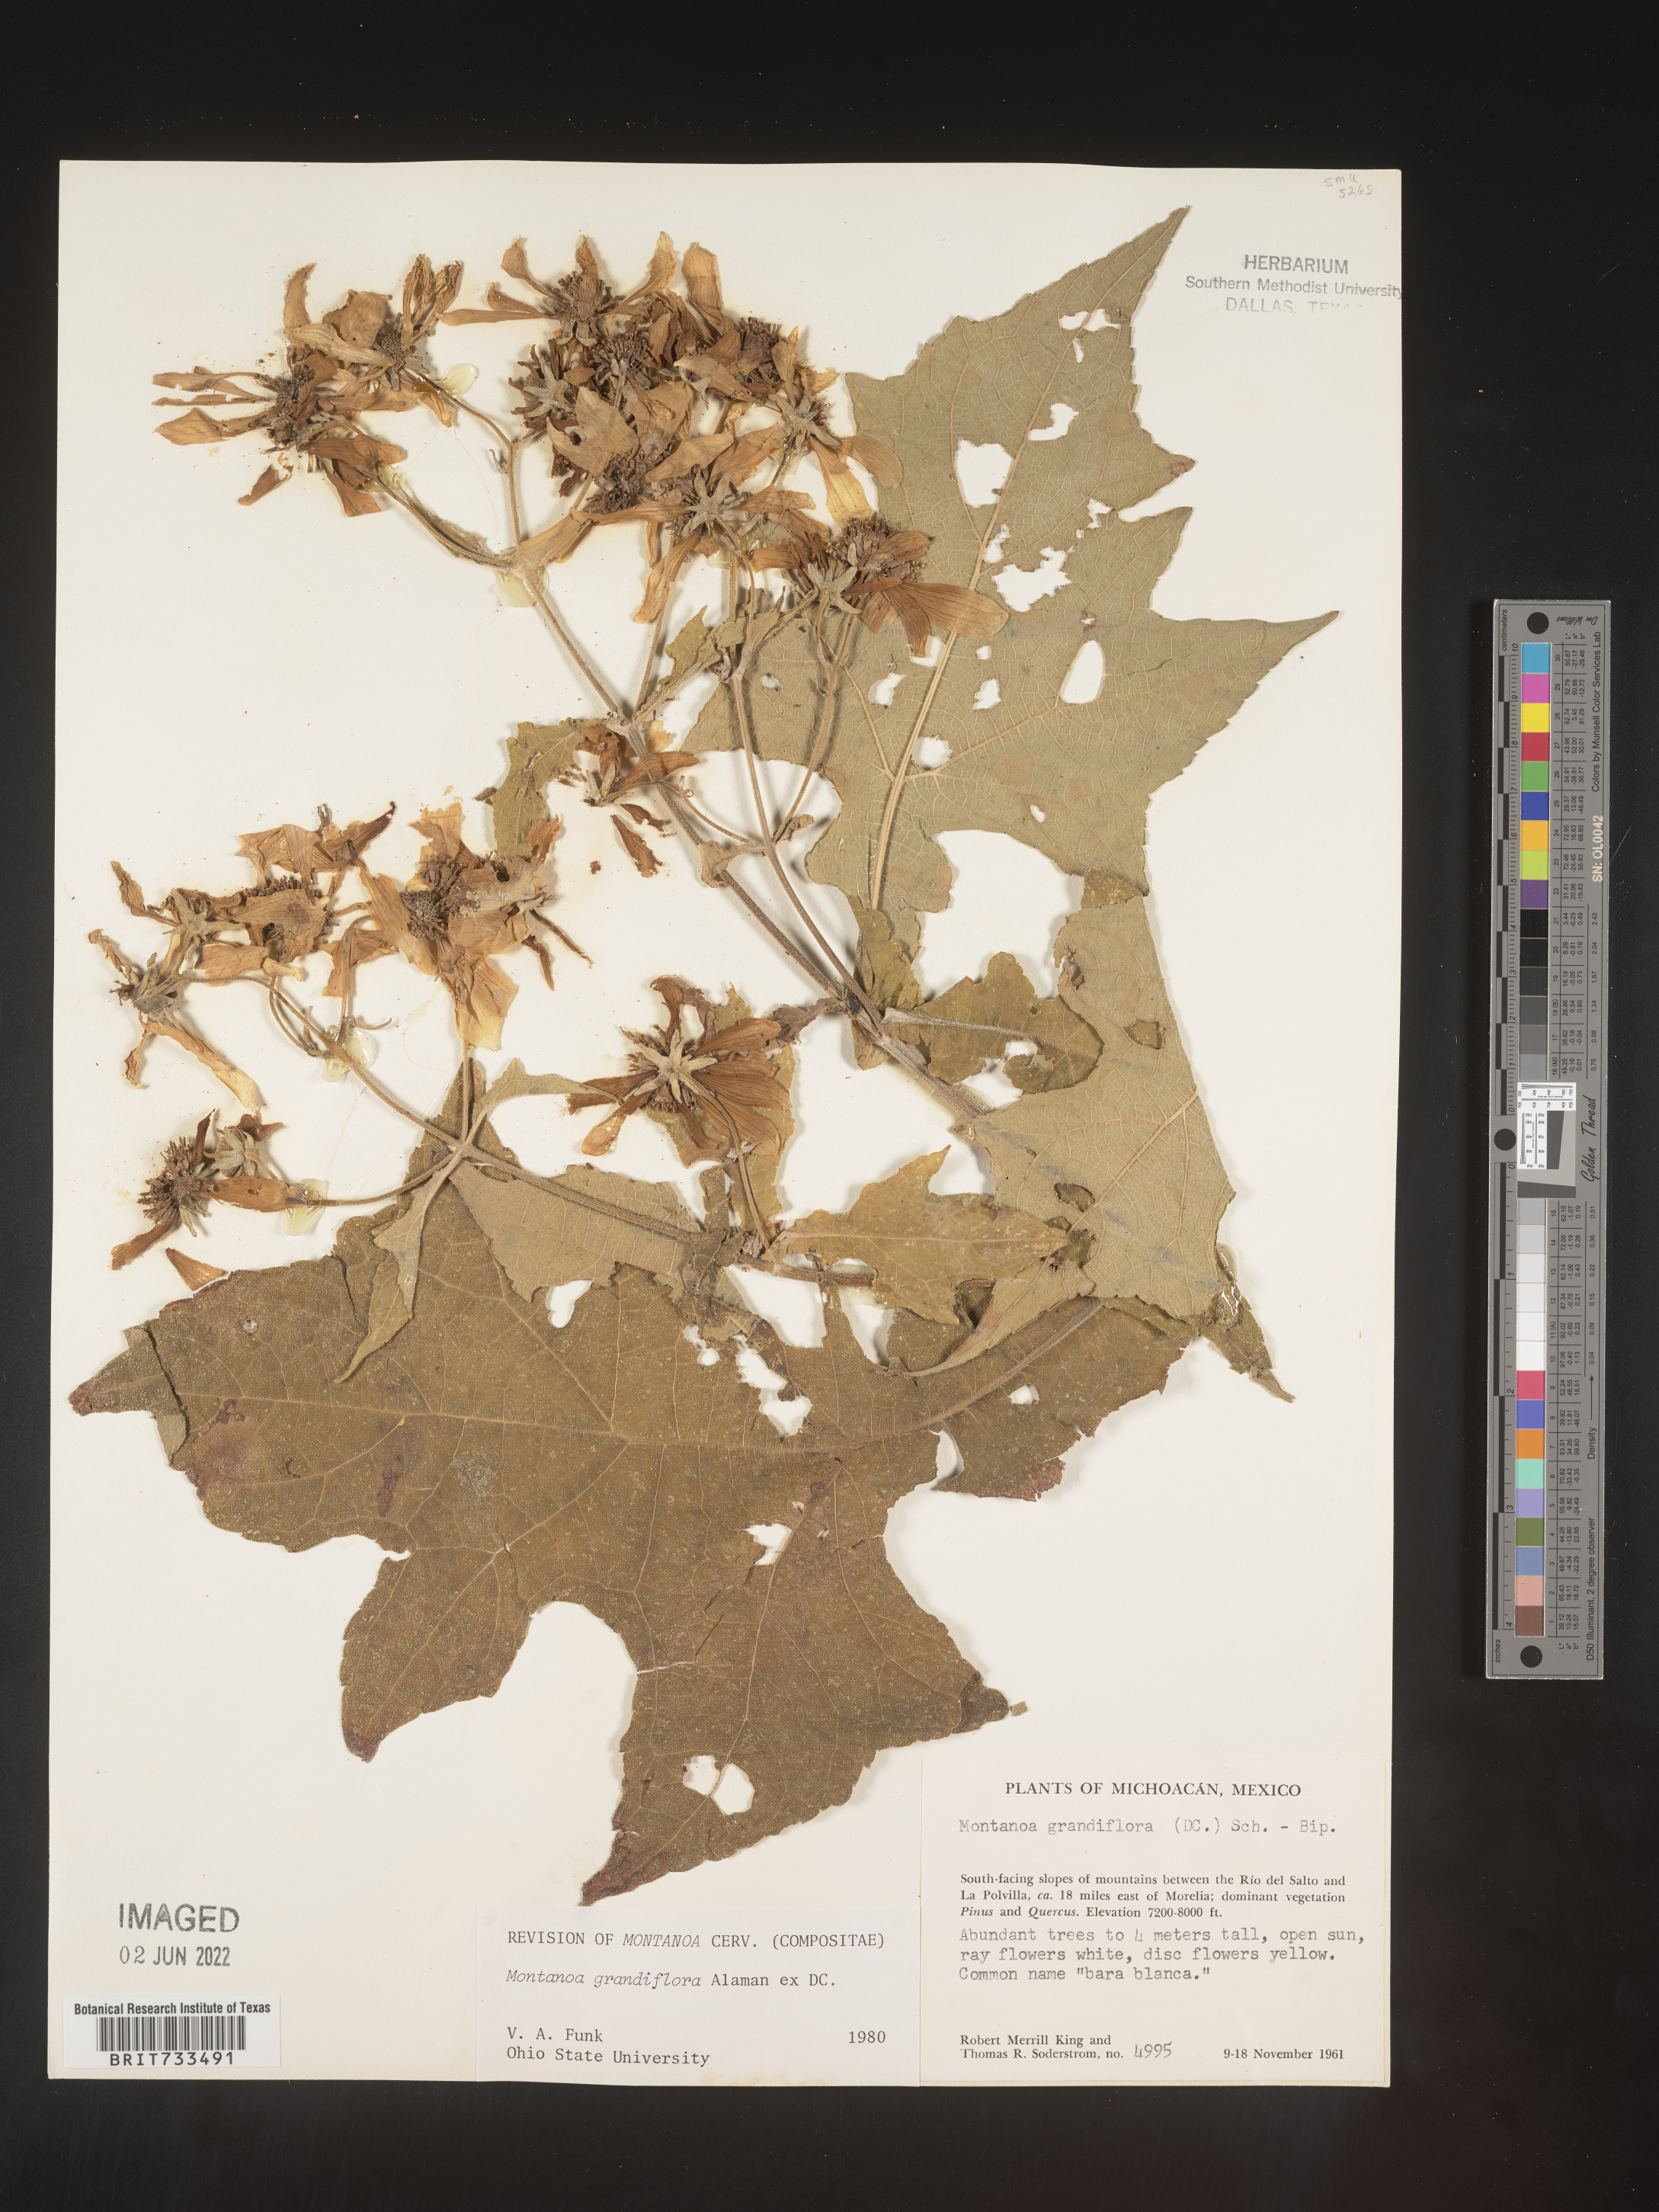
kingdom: Plantae
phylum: Tracheophyta
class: Magnoliopsida
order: Asterales
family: Asteraceae
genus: Montanoa
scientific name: Montanoa
